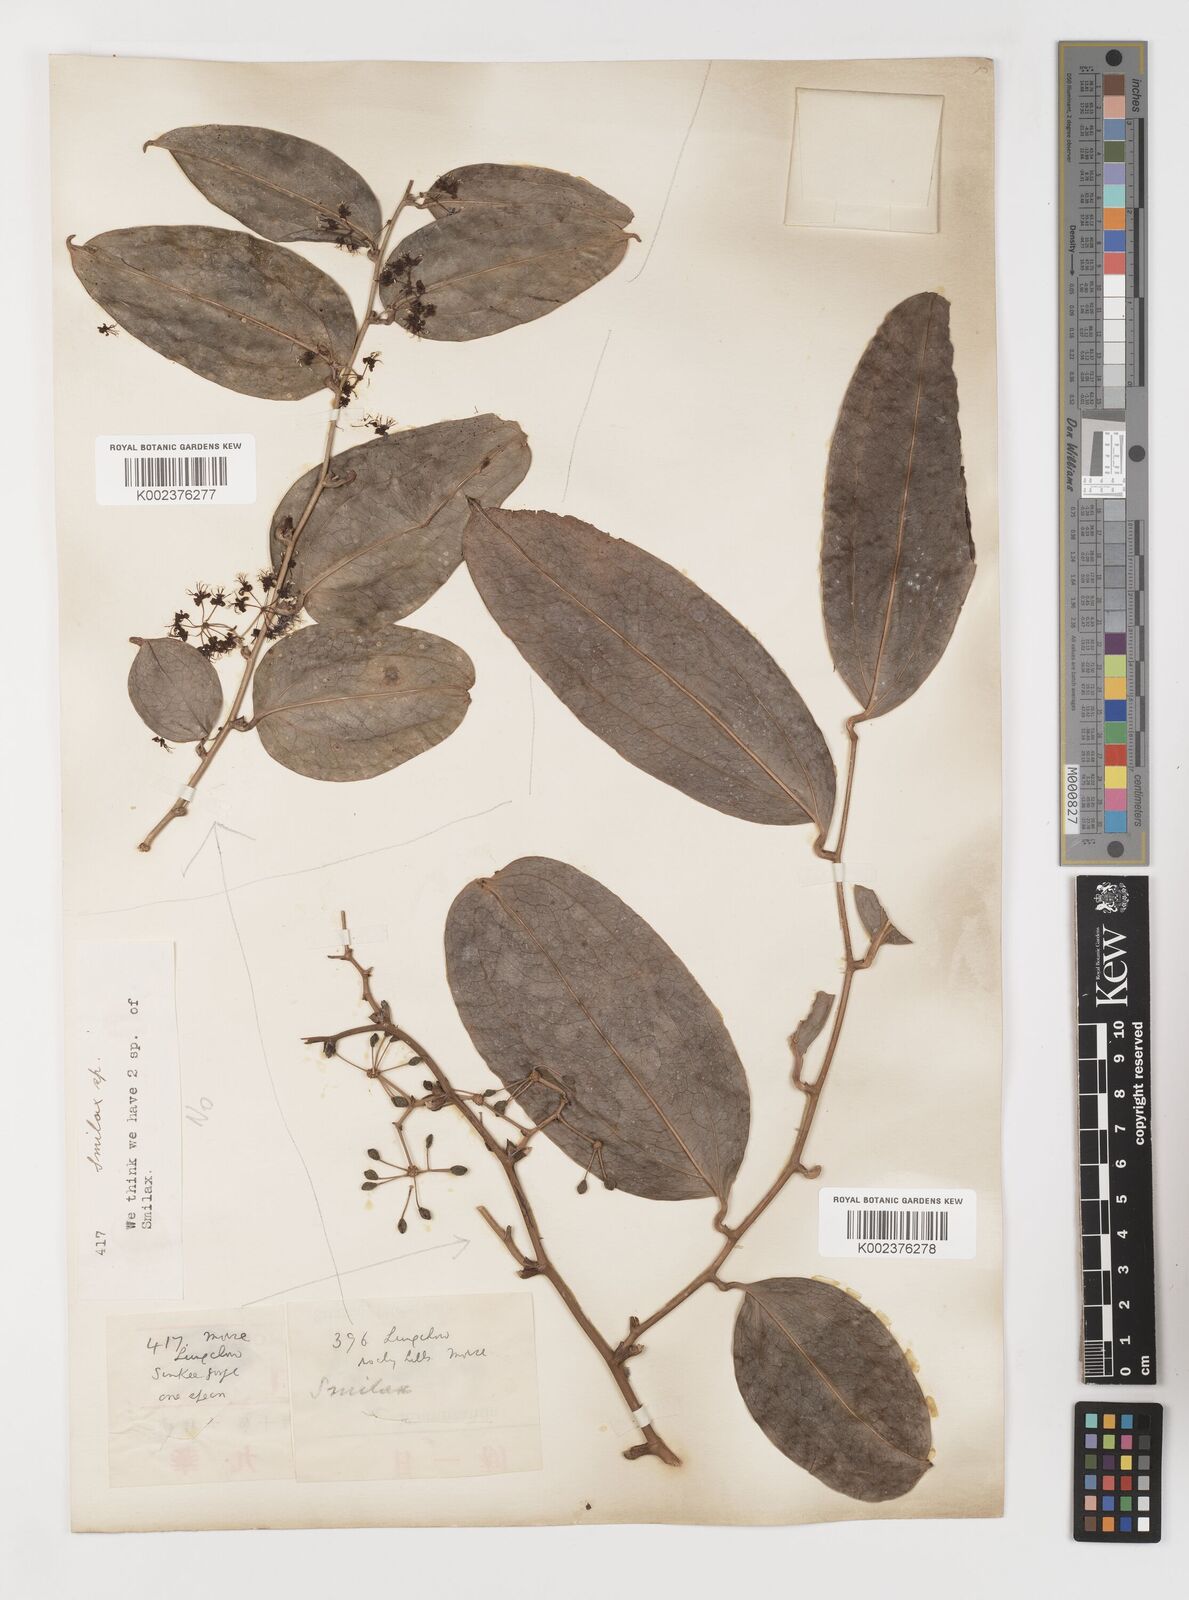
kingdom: Plantae
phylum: Tracheophyta
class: Liliopsida
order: Liliales
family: Smilacaceae
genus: Smilax
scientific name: Smilax megacarpa
